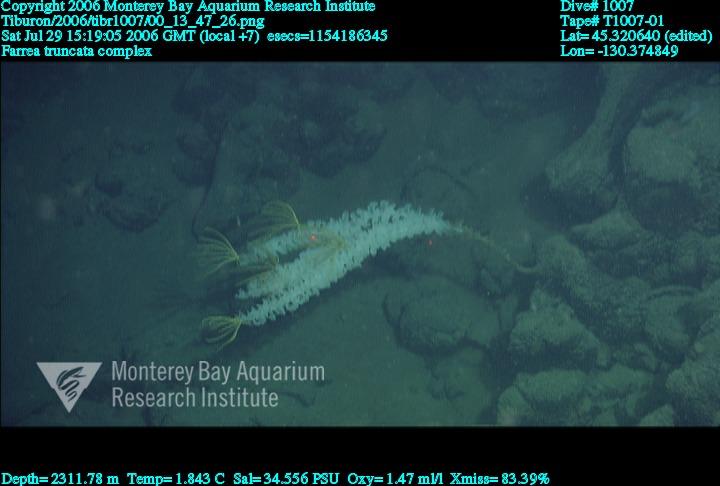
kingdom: Animalia
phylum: Porifera
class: Hexactinellida
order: Sceptrulophora
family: Farreidae
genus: Farrea
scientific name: Farrea truncata
